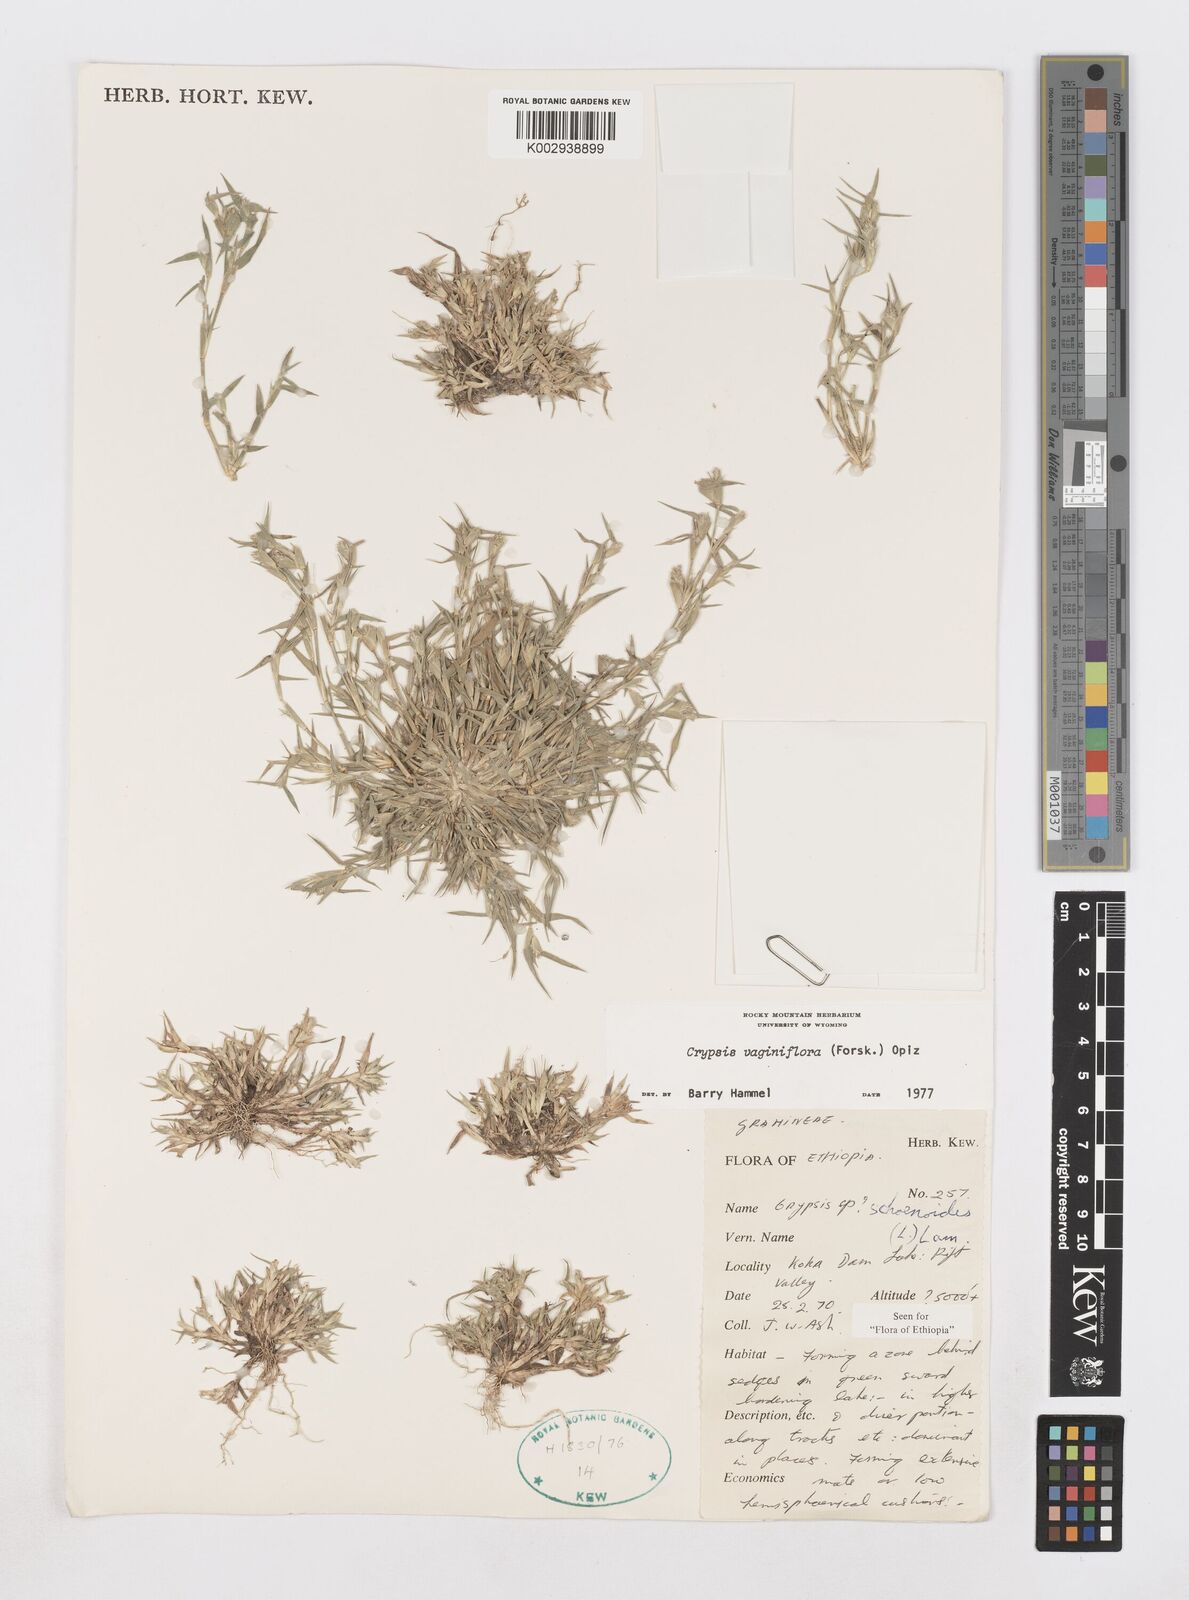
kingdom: Plantae
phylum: Tracheophyta
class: Liliopsida
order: Poales
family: Poaceae
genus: Sporobolus
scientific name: Sporobolus niliacus
